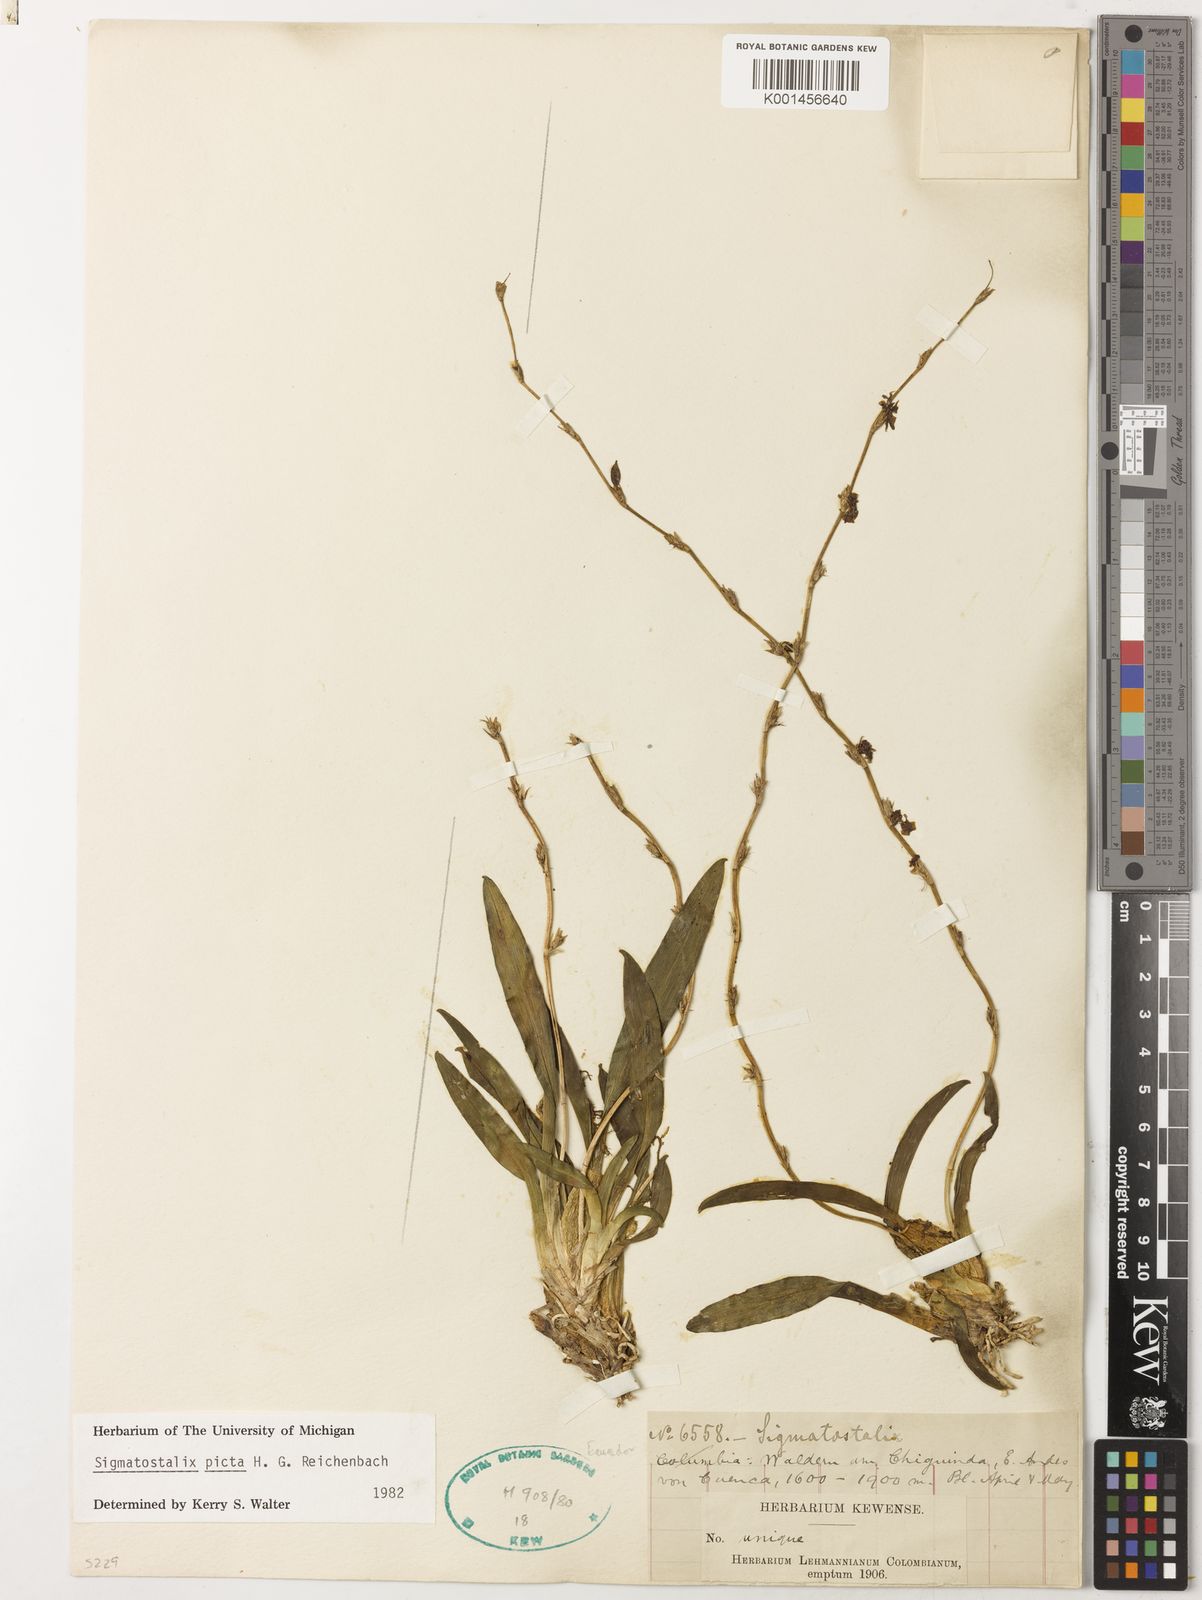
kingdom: Plantae
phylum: Tracheophyta
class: Liliopsida
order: Asparagales
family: Orchidaceae
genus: Oncidium
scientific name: Oncidium poikilostalix
